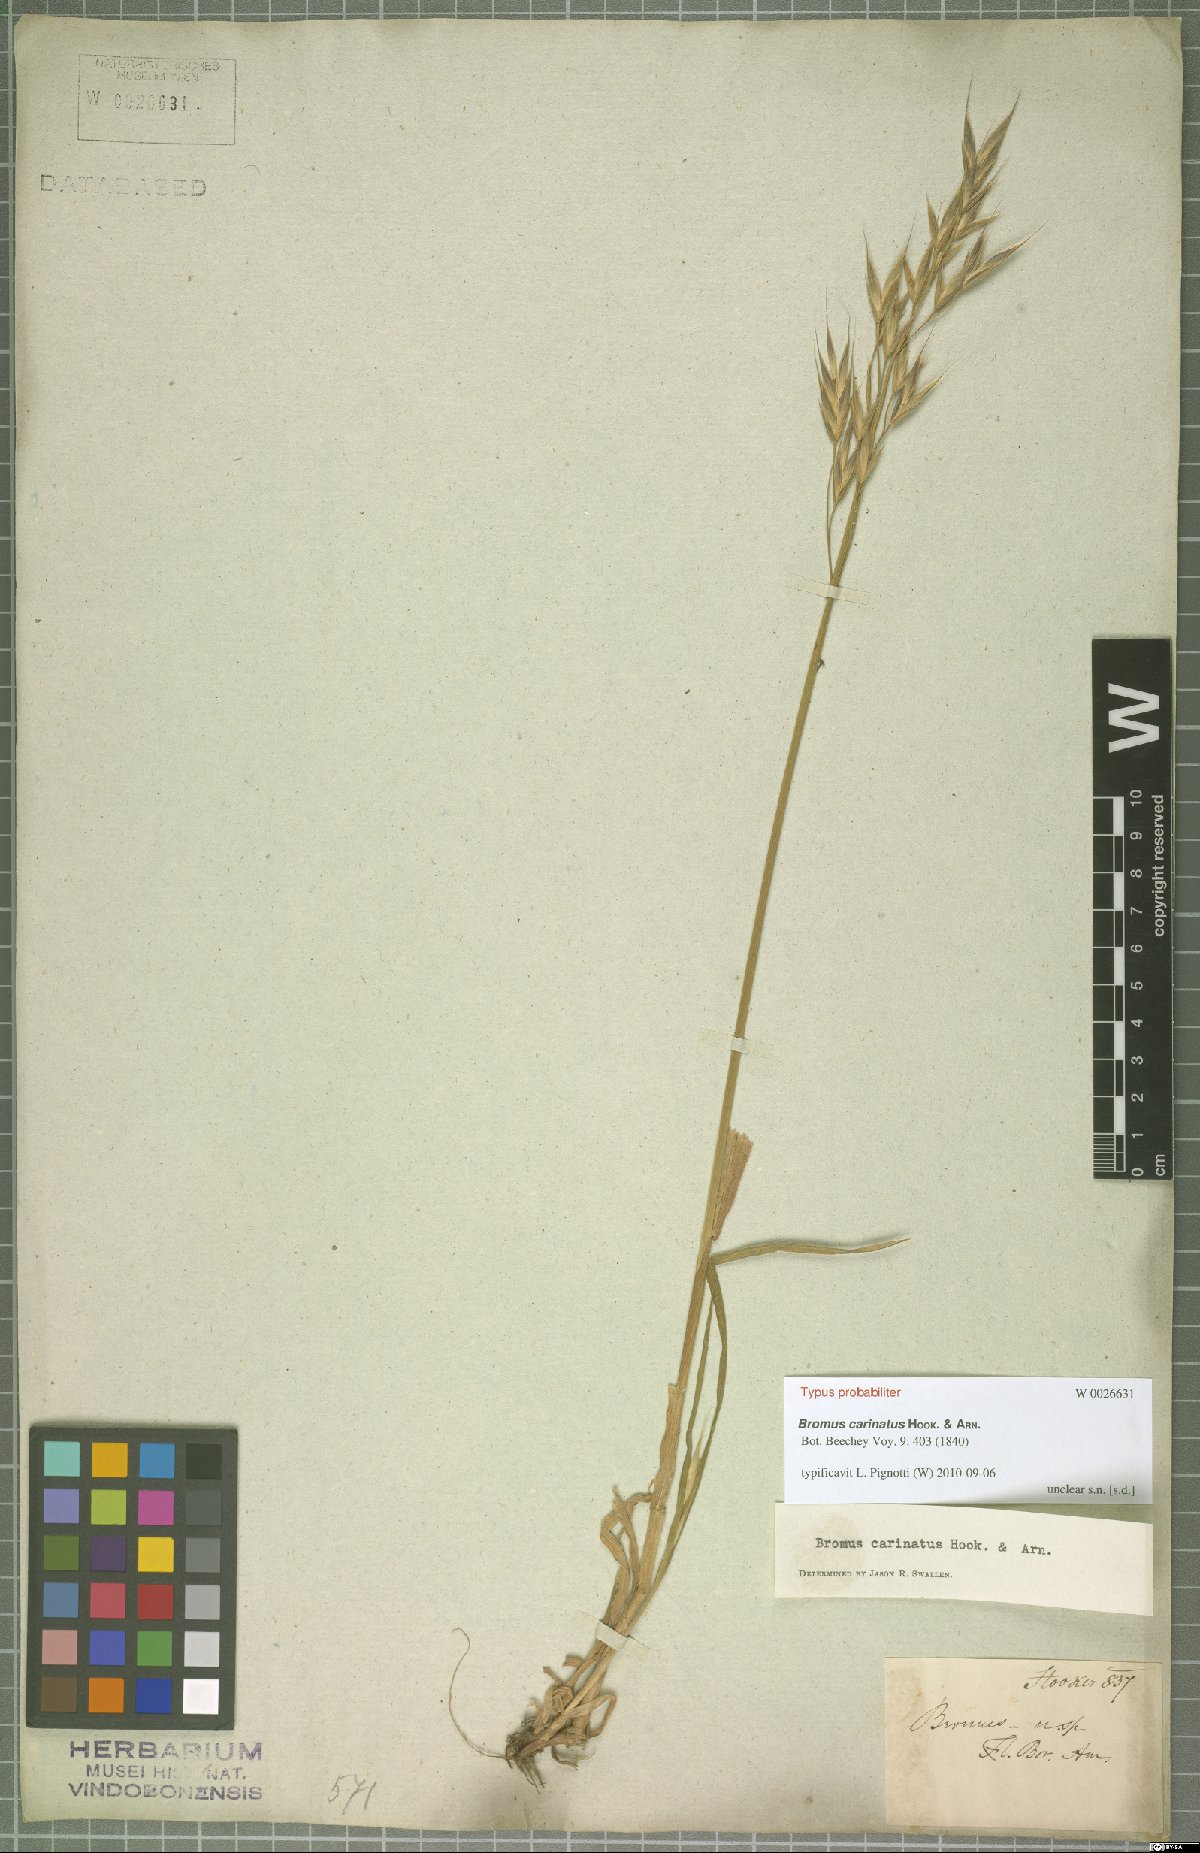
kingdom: Plantae
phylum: Tracheophyta
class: Liliopsida
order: Poales
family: Poaceae
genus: Bromus
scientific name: Bromus carinatus
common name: Mountain brome
